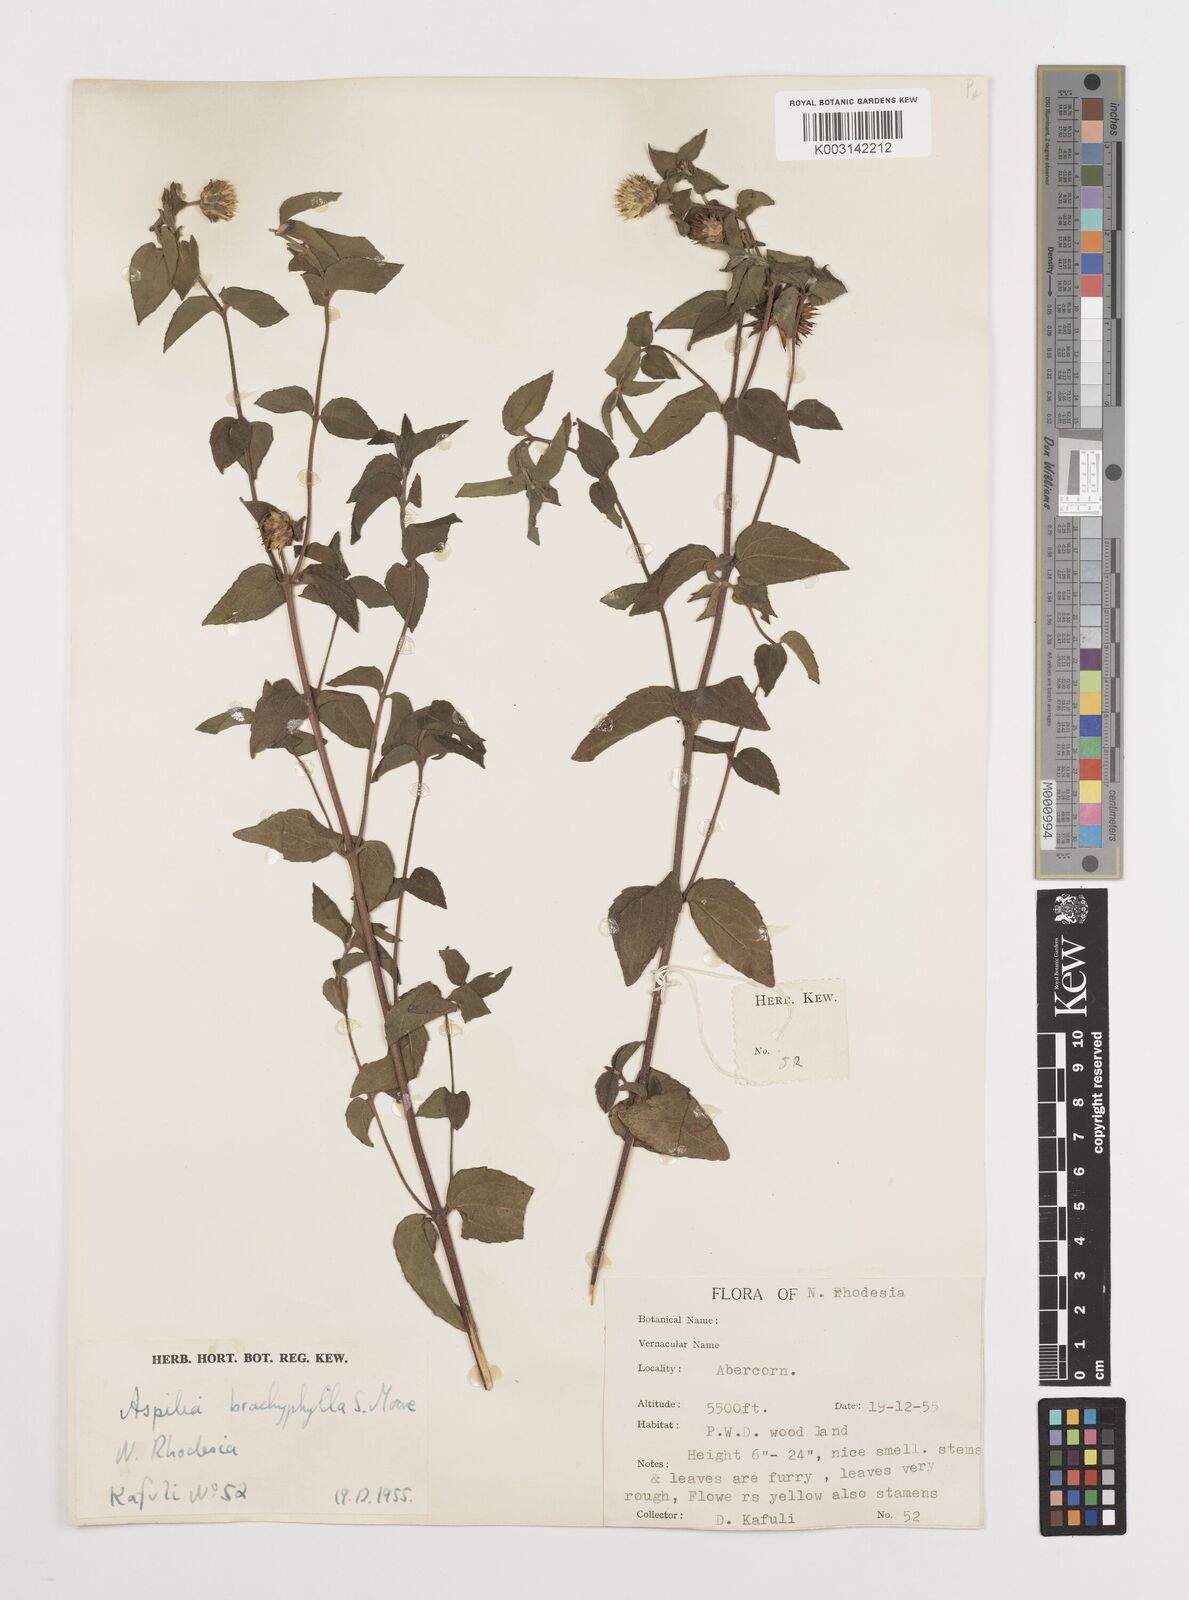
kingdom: Plantae
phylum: Tracheophyta
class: Magnoliopsida
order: Asterales
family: Asteraceae
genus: Aspilia
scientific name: Aspilia pluriseta
